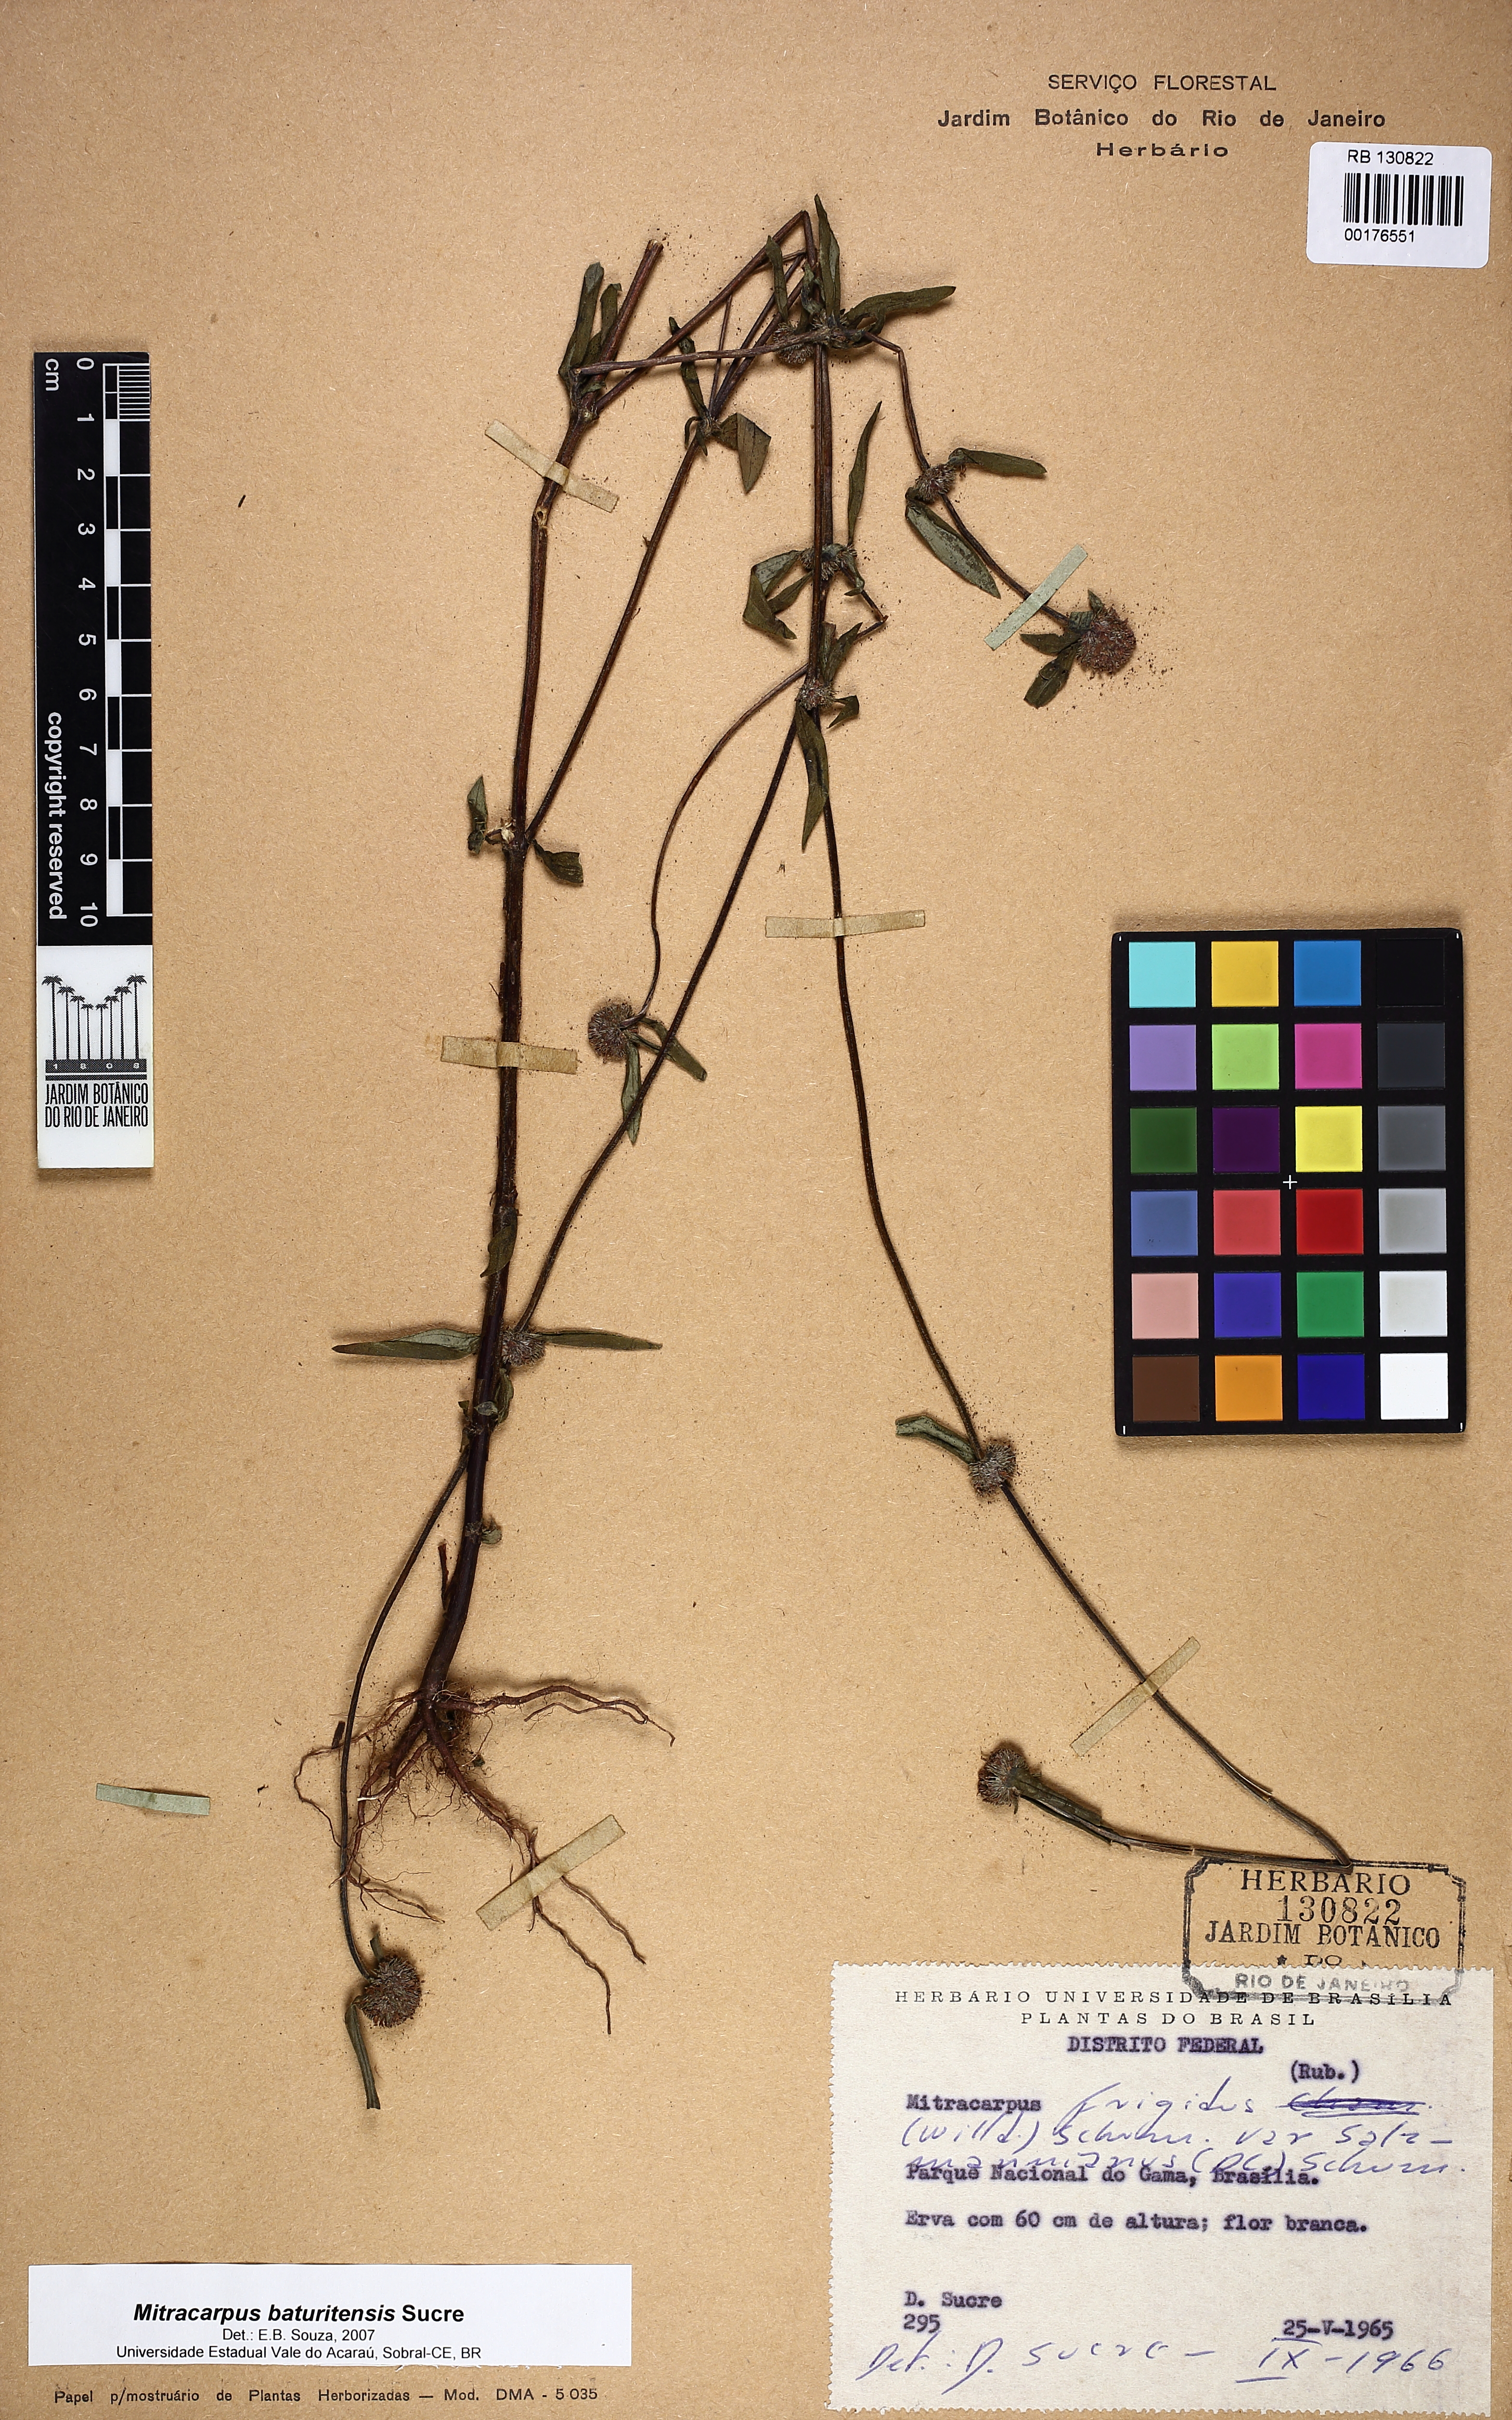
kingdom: Plantae
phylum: Tracheophyta
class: Magnoliopsida
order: Gentianales
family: Rubiaceae
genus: Mitracarpus
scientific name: Mitracarpus baturitensis
